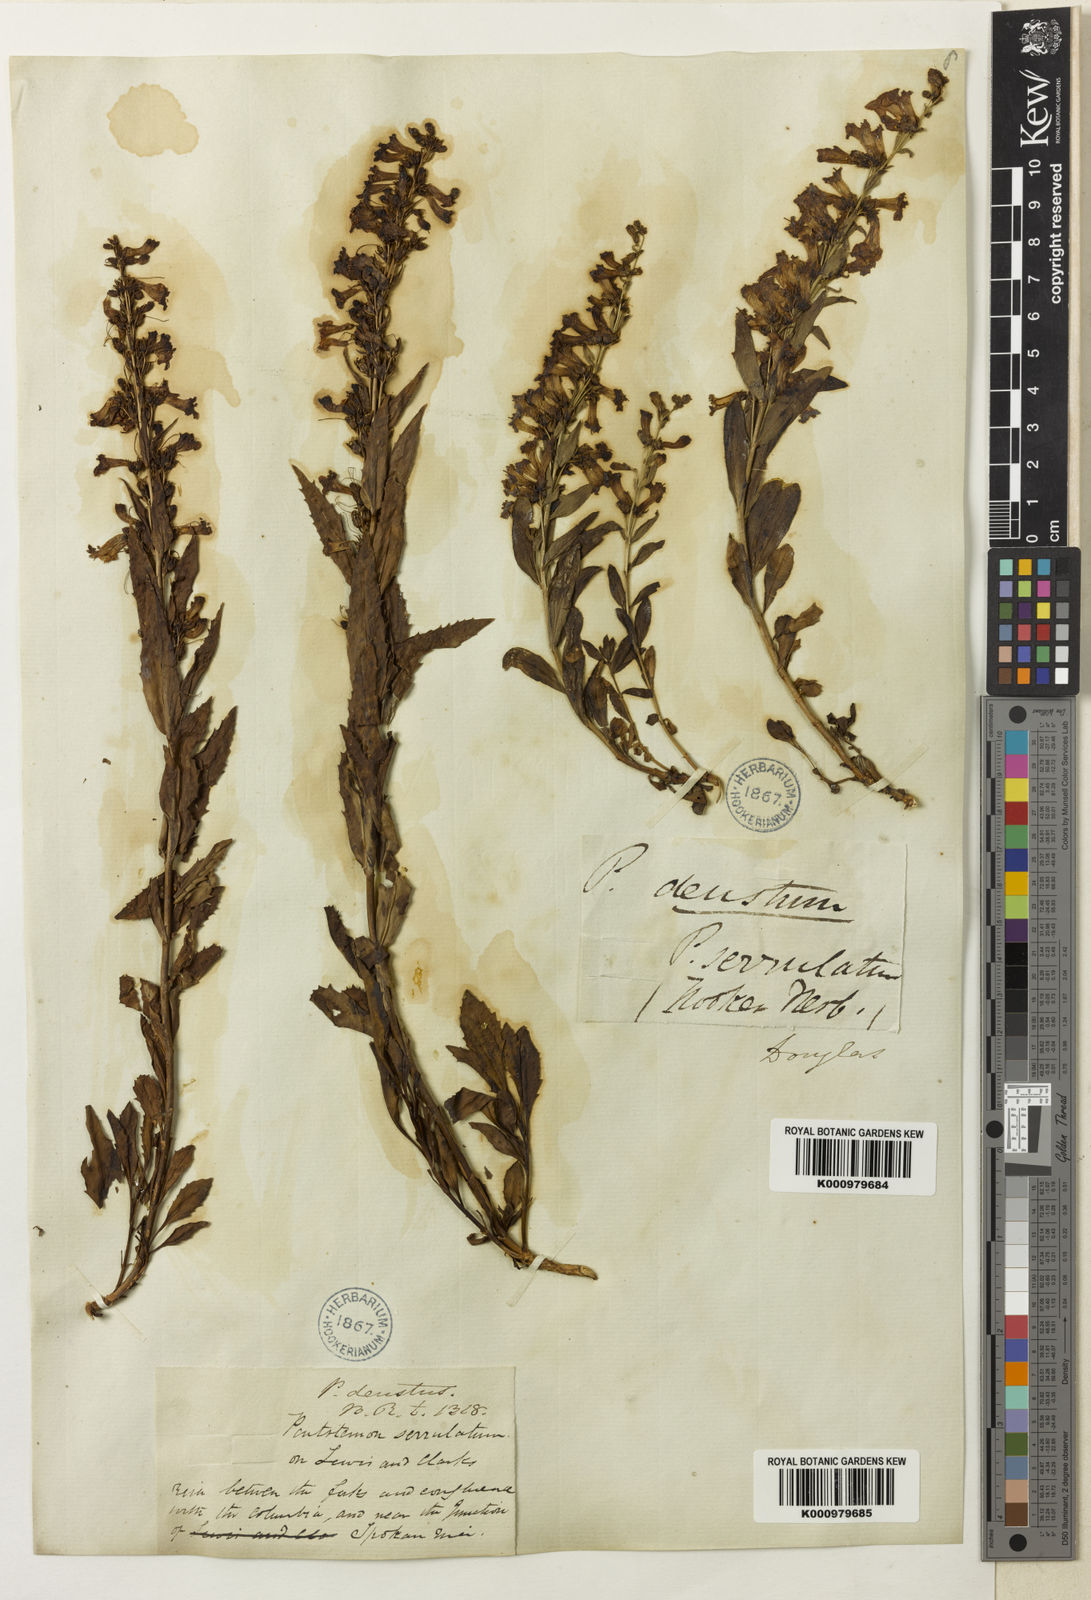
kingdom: Plantae
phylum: Tracheophyta
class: Magnoliopsida
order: Lamiales
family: Plantaginaceae
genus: Penstemon
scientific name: Penstemon
